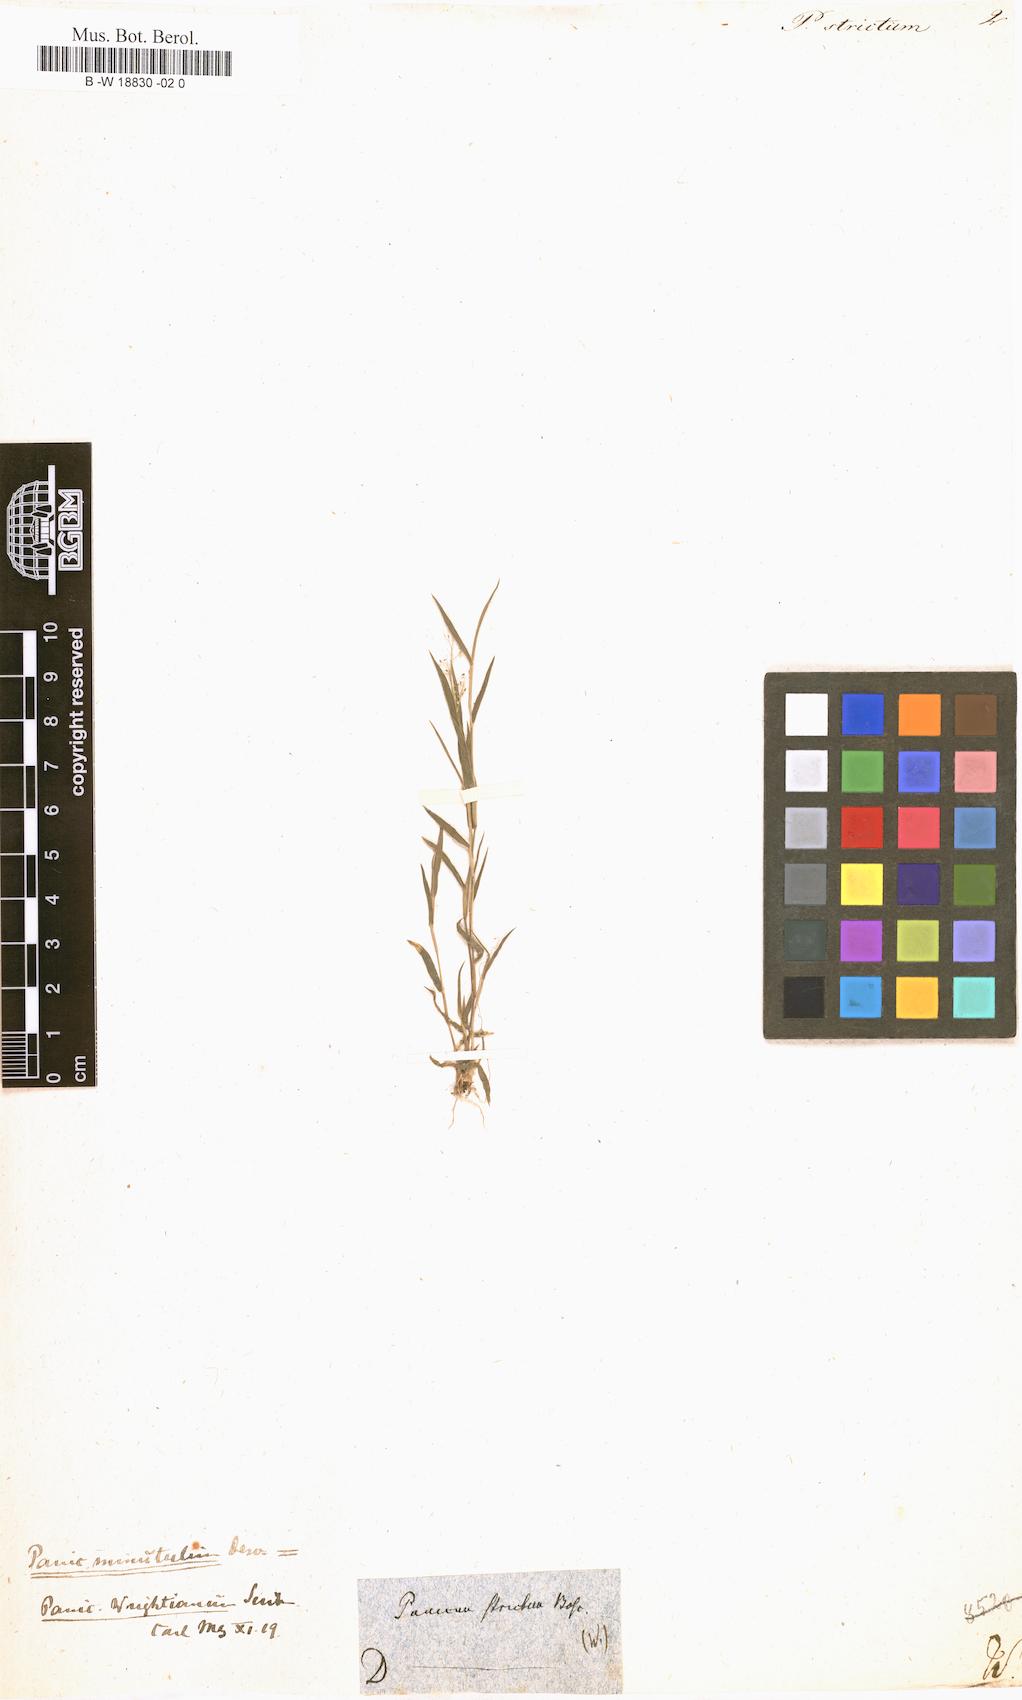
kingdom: Plantae
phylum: Tracheophyta
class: Liliopsida
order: Poales
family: Poaceae
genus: Entolasia
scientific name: Entolasia stricta
